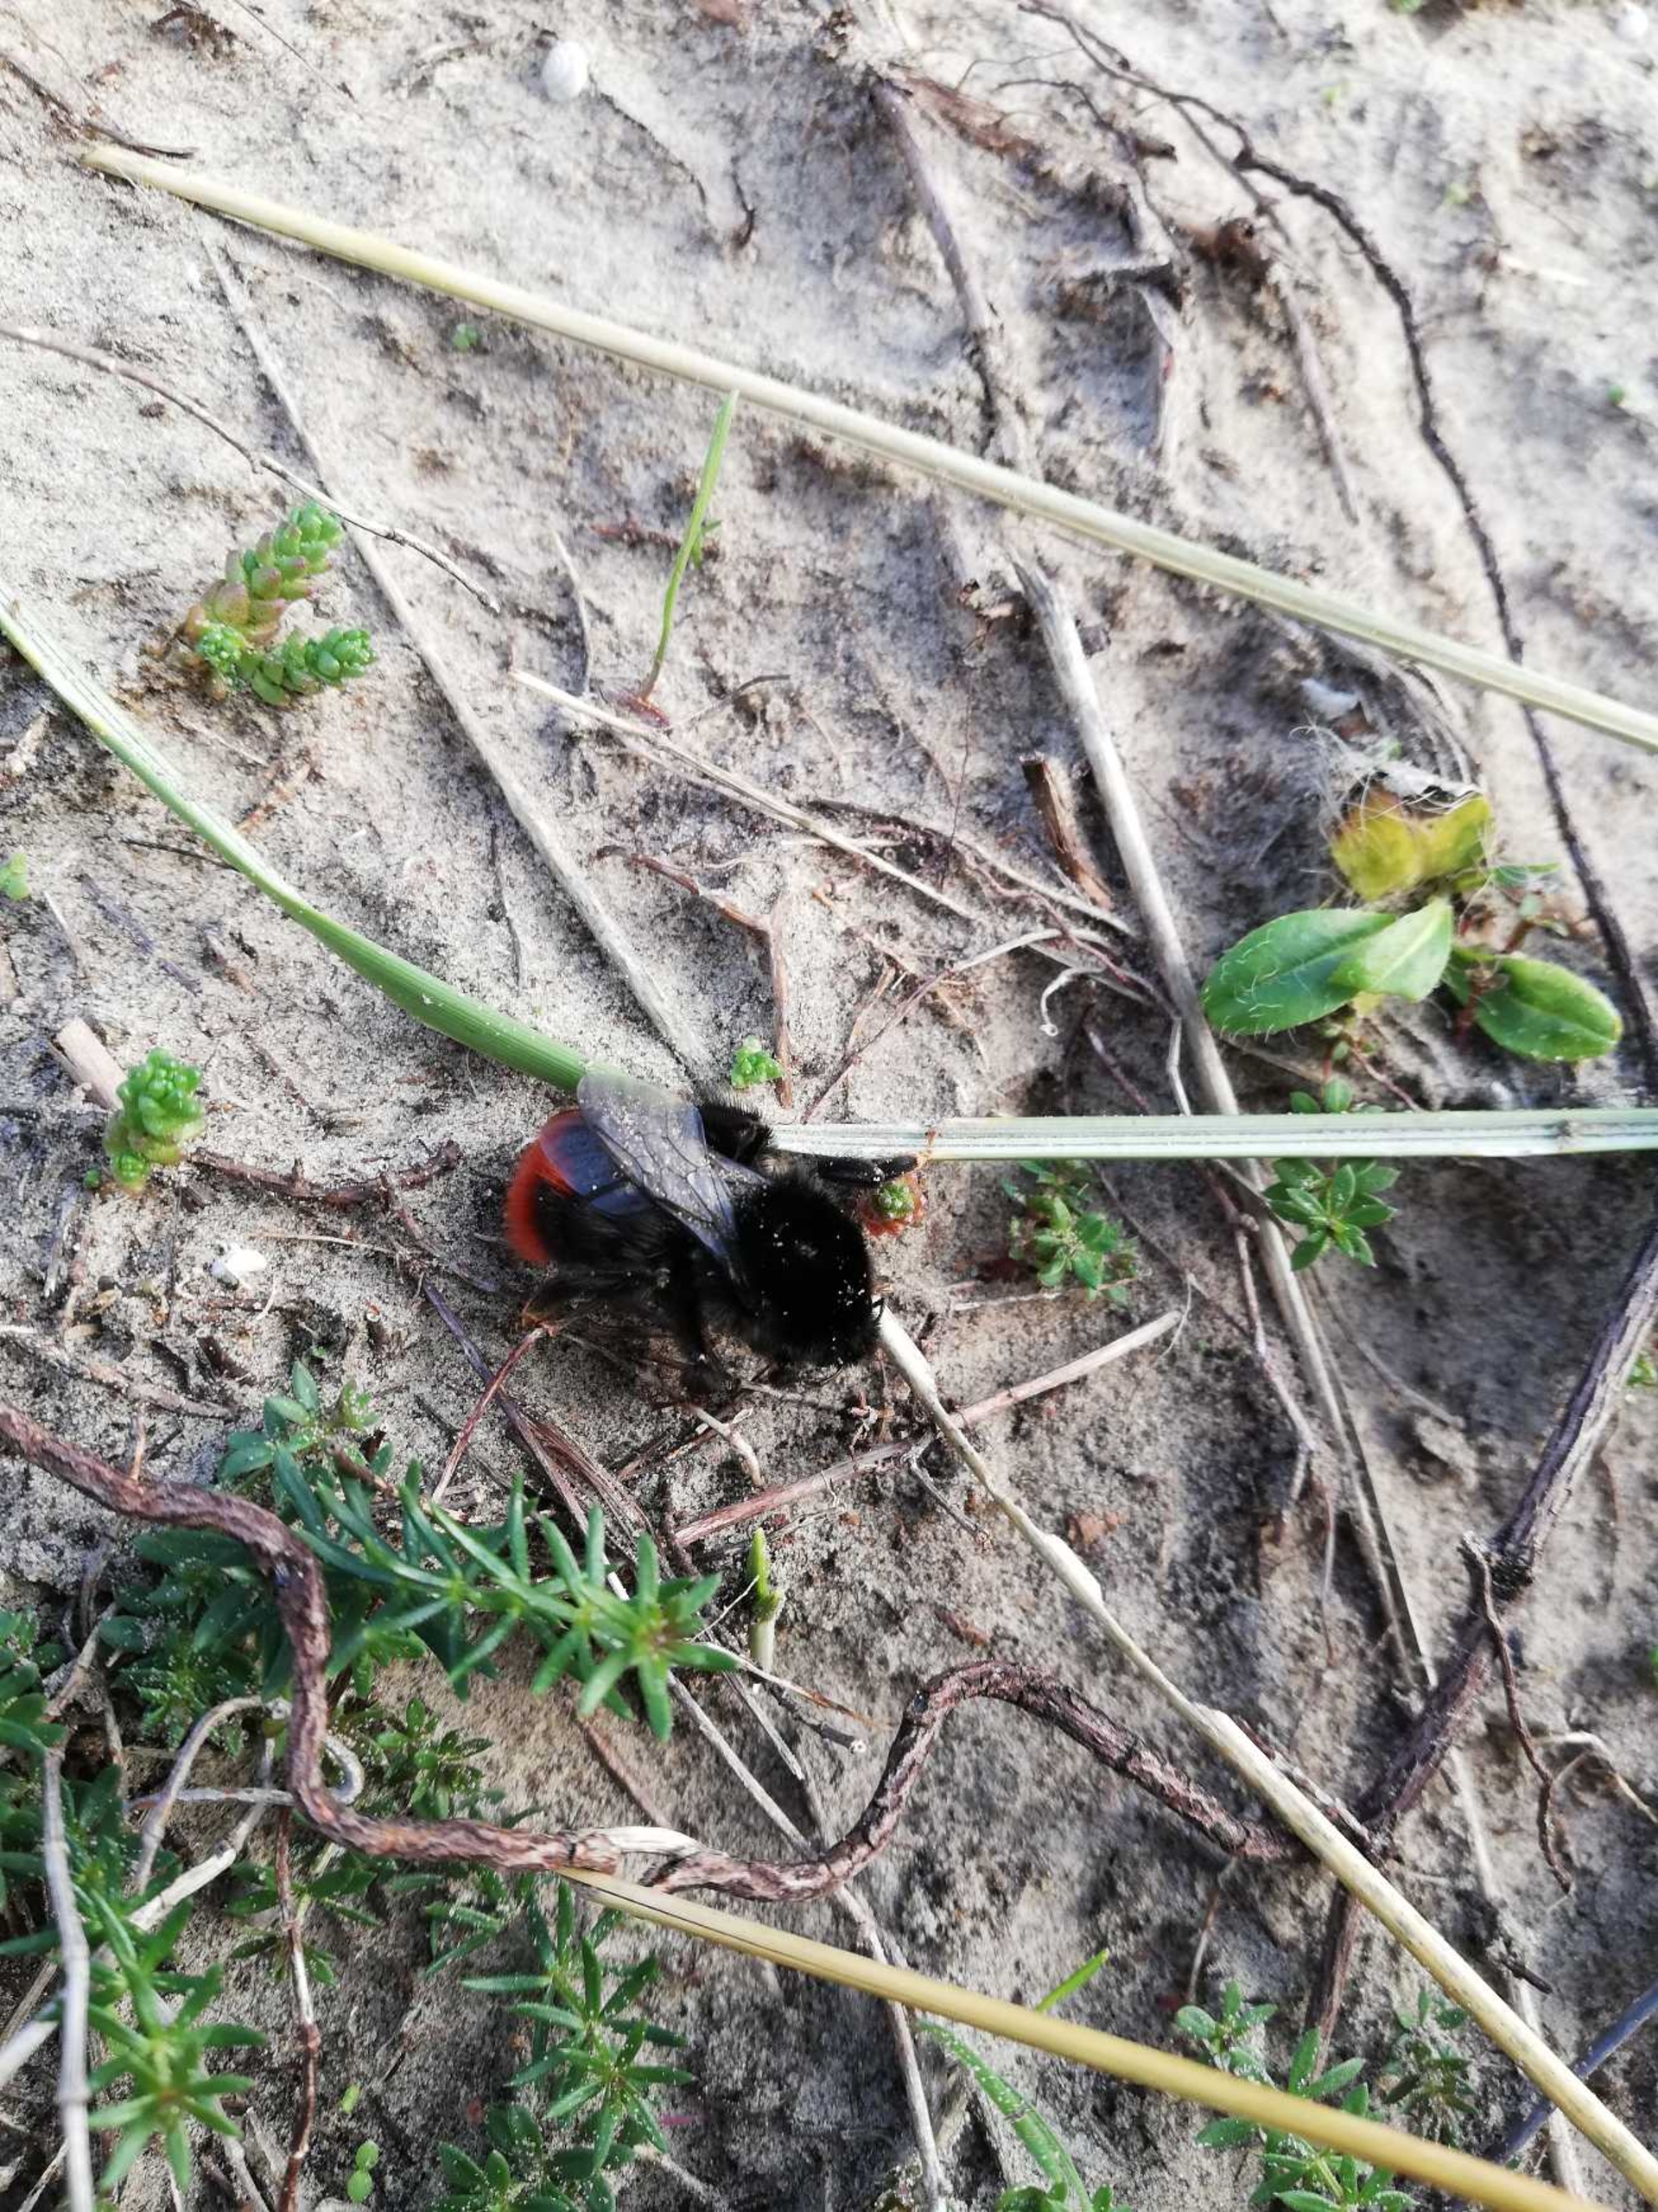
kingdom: Animalia
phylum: Arthropoda
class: Insecta
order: Hymenoptera
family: Apidae
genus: Bombus
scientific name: Bombus lapidarius
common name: Stenhumle
